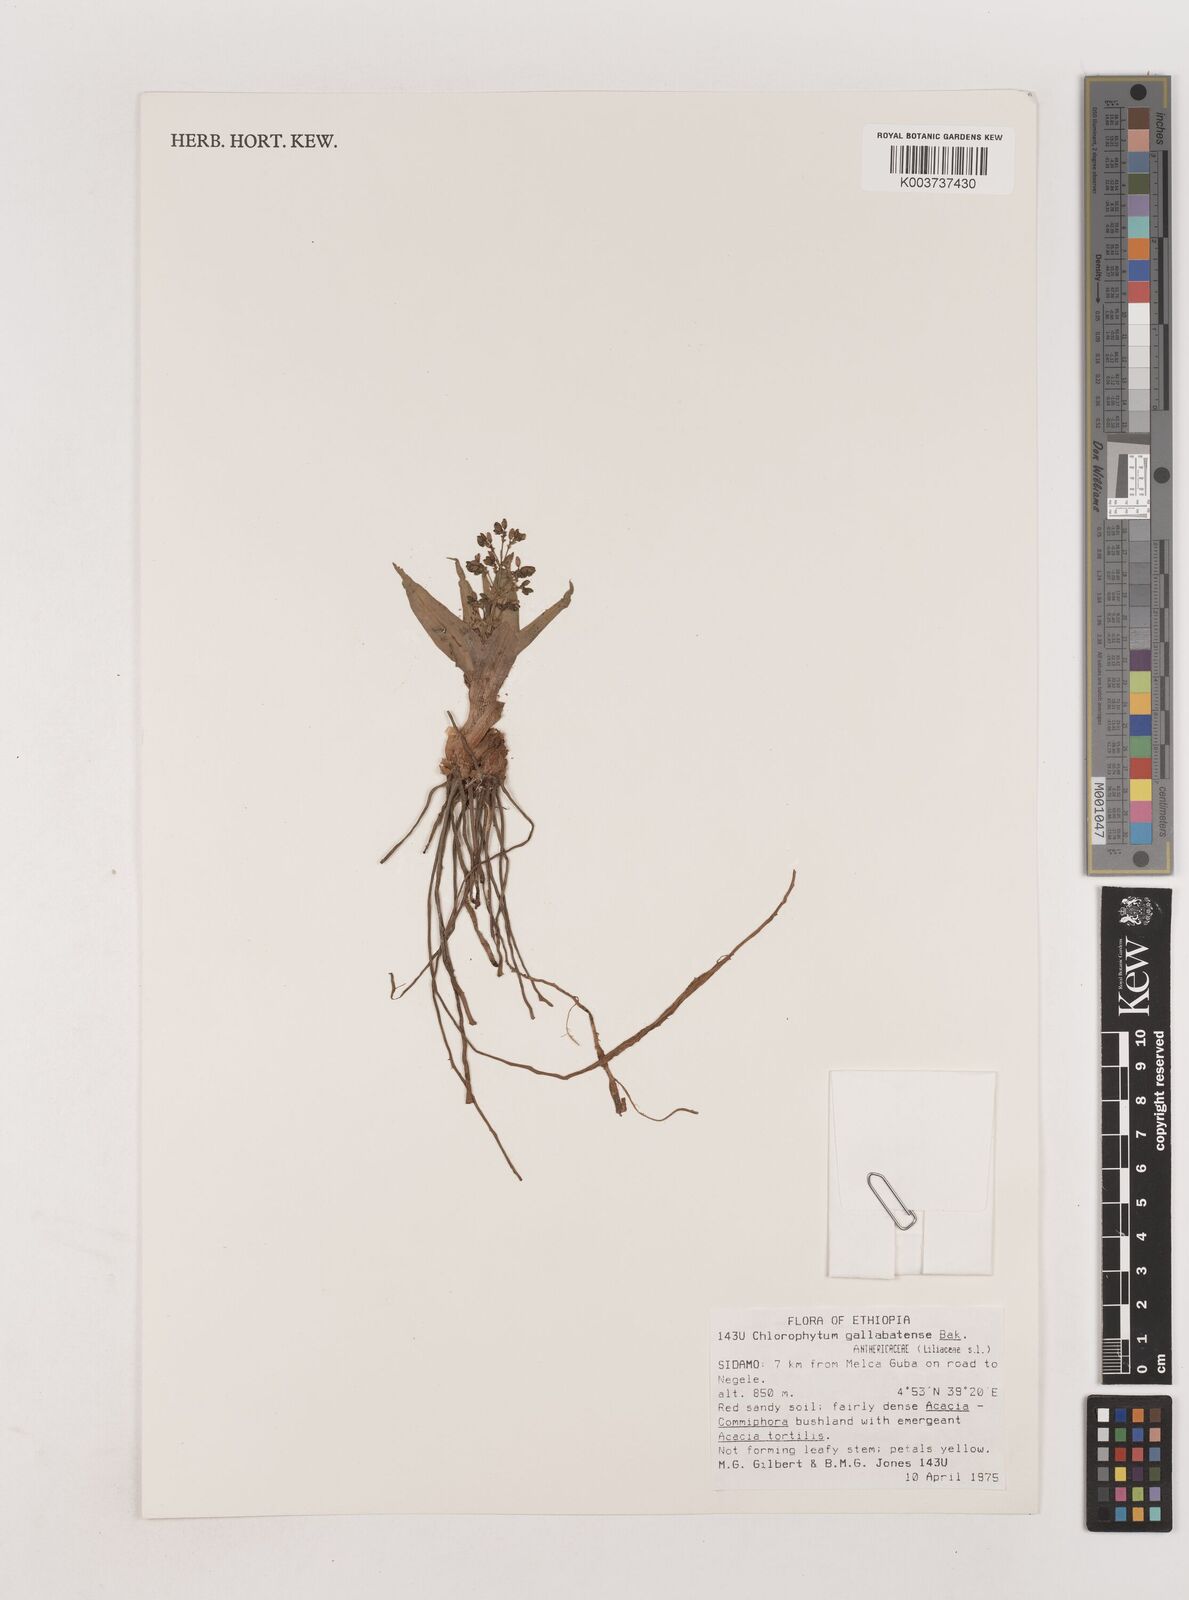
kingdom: Plantae
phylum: Tracheophyta
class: Liliopsida
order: Asparagales
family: Asparagaceae
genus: Chlorophytum
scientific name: Chlorophytum gallabatense
